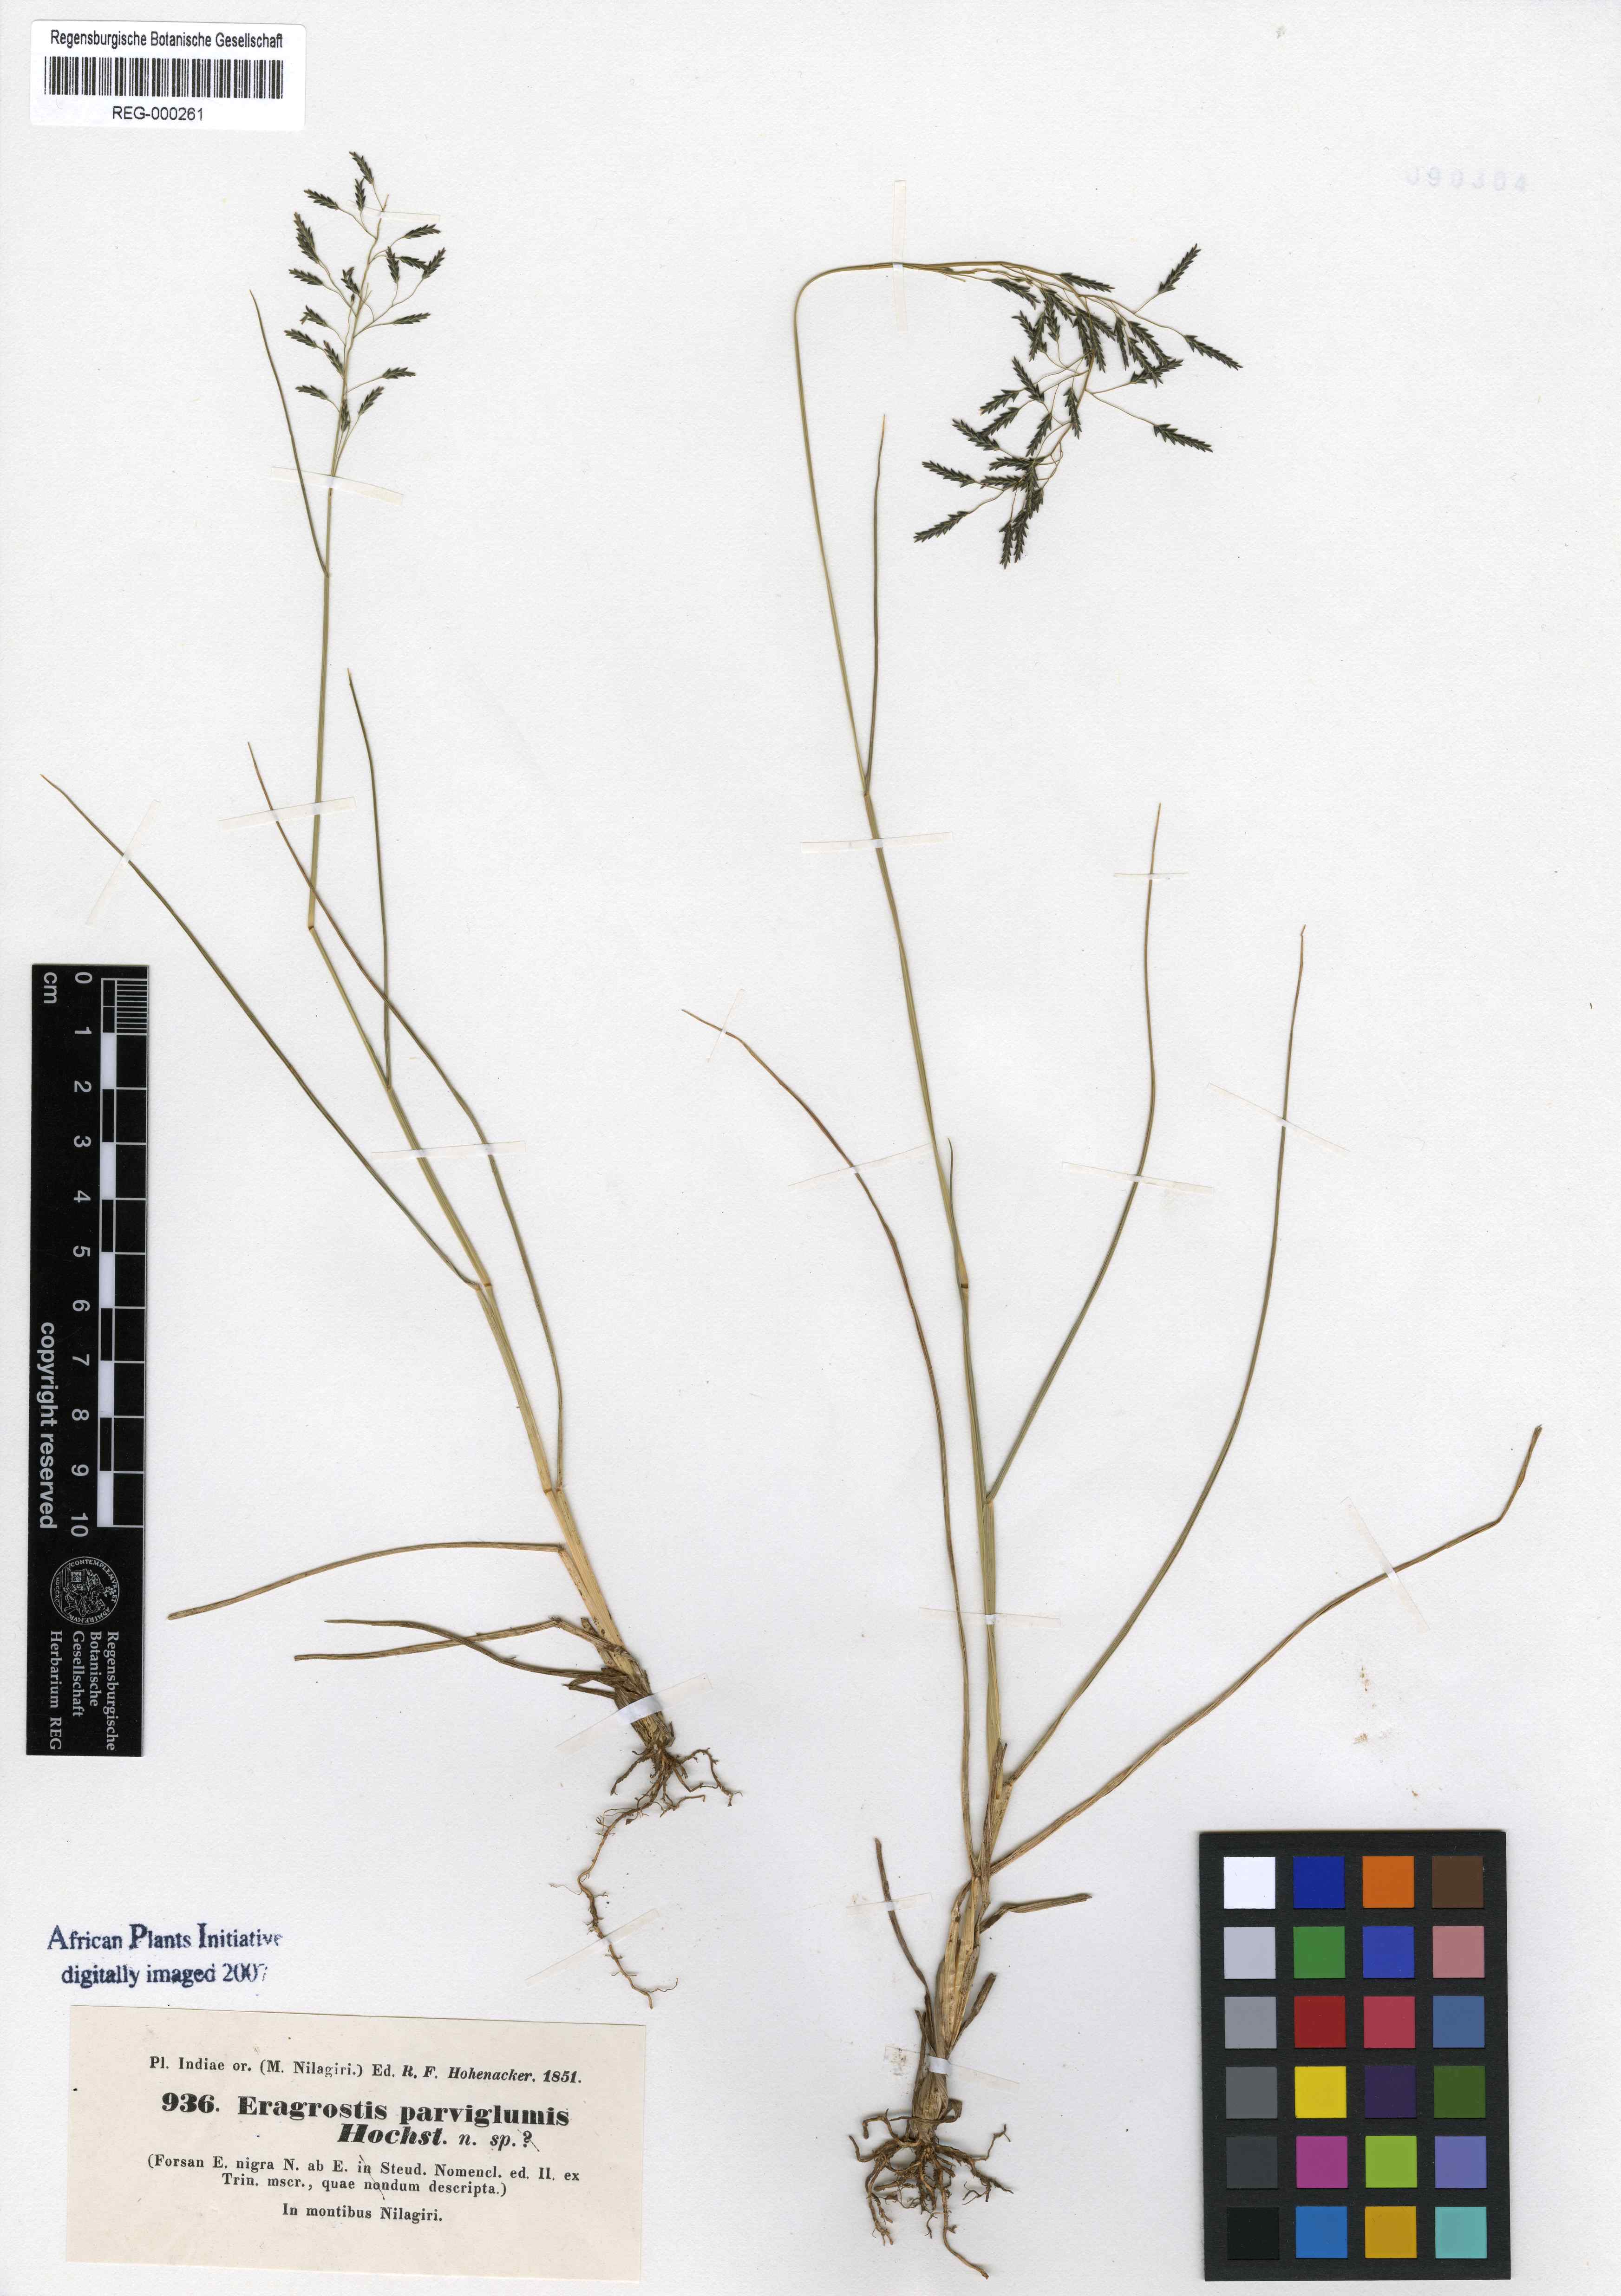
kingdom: Plantae
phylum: Tracheophyta
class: Liliopsida
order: Poales
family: Poaceae
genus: Eragrostis
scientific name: Eragrostis tenuifolia
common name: Elastic grass
